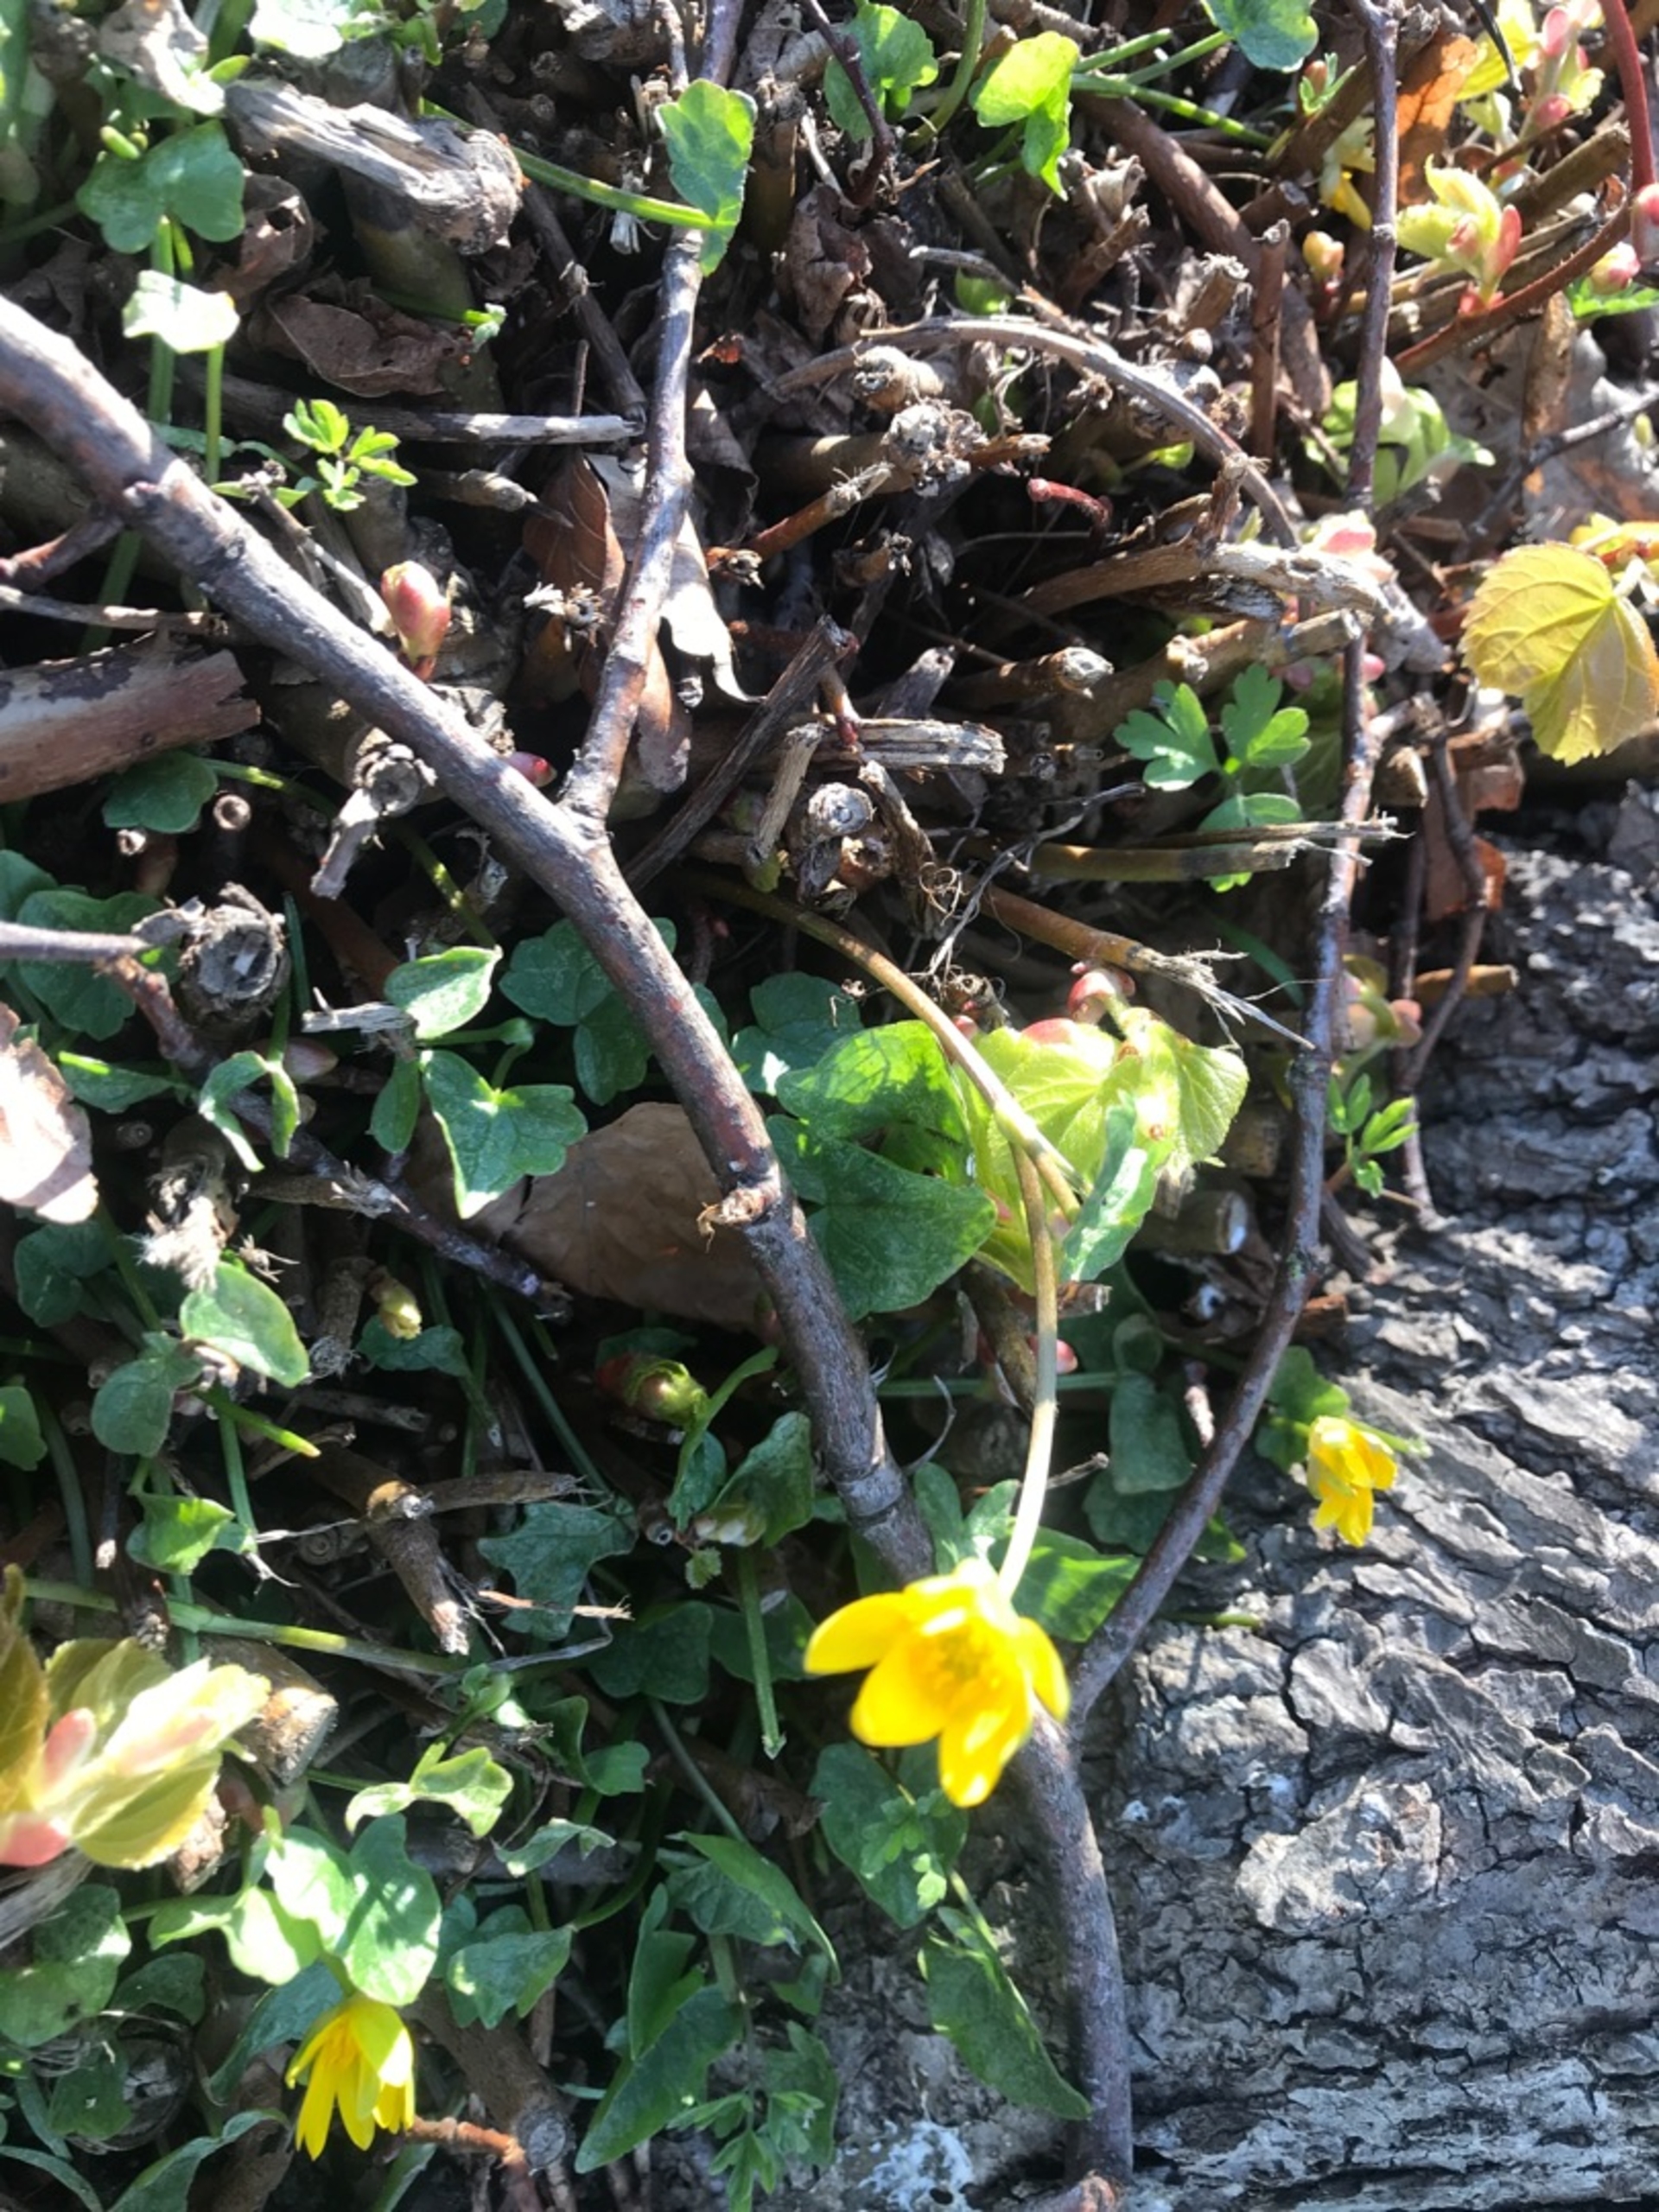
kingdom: Plantae
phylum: Tracheophyta
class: Magnoliopsida
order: Ranunculales
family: Ranunculaceae
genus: Ficaria
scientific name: Ficaria verna
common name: Vorterod
